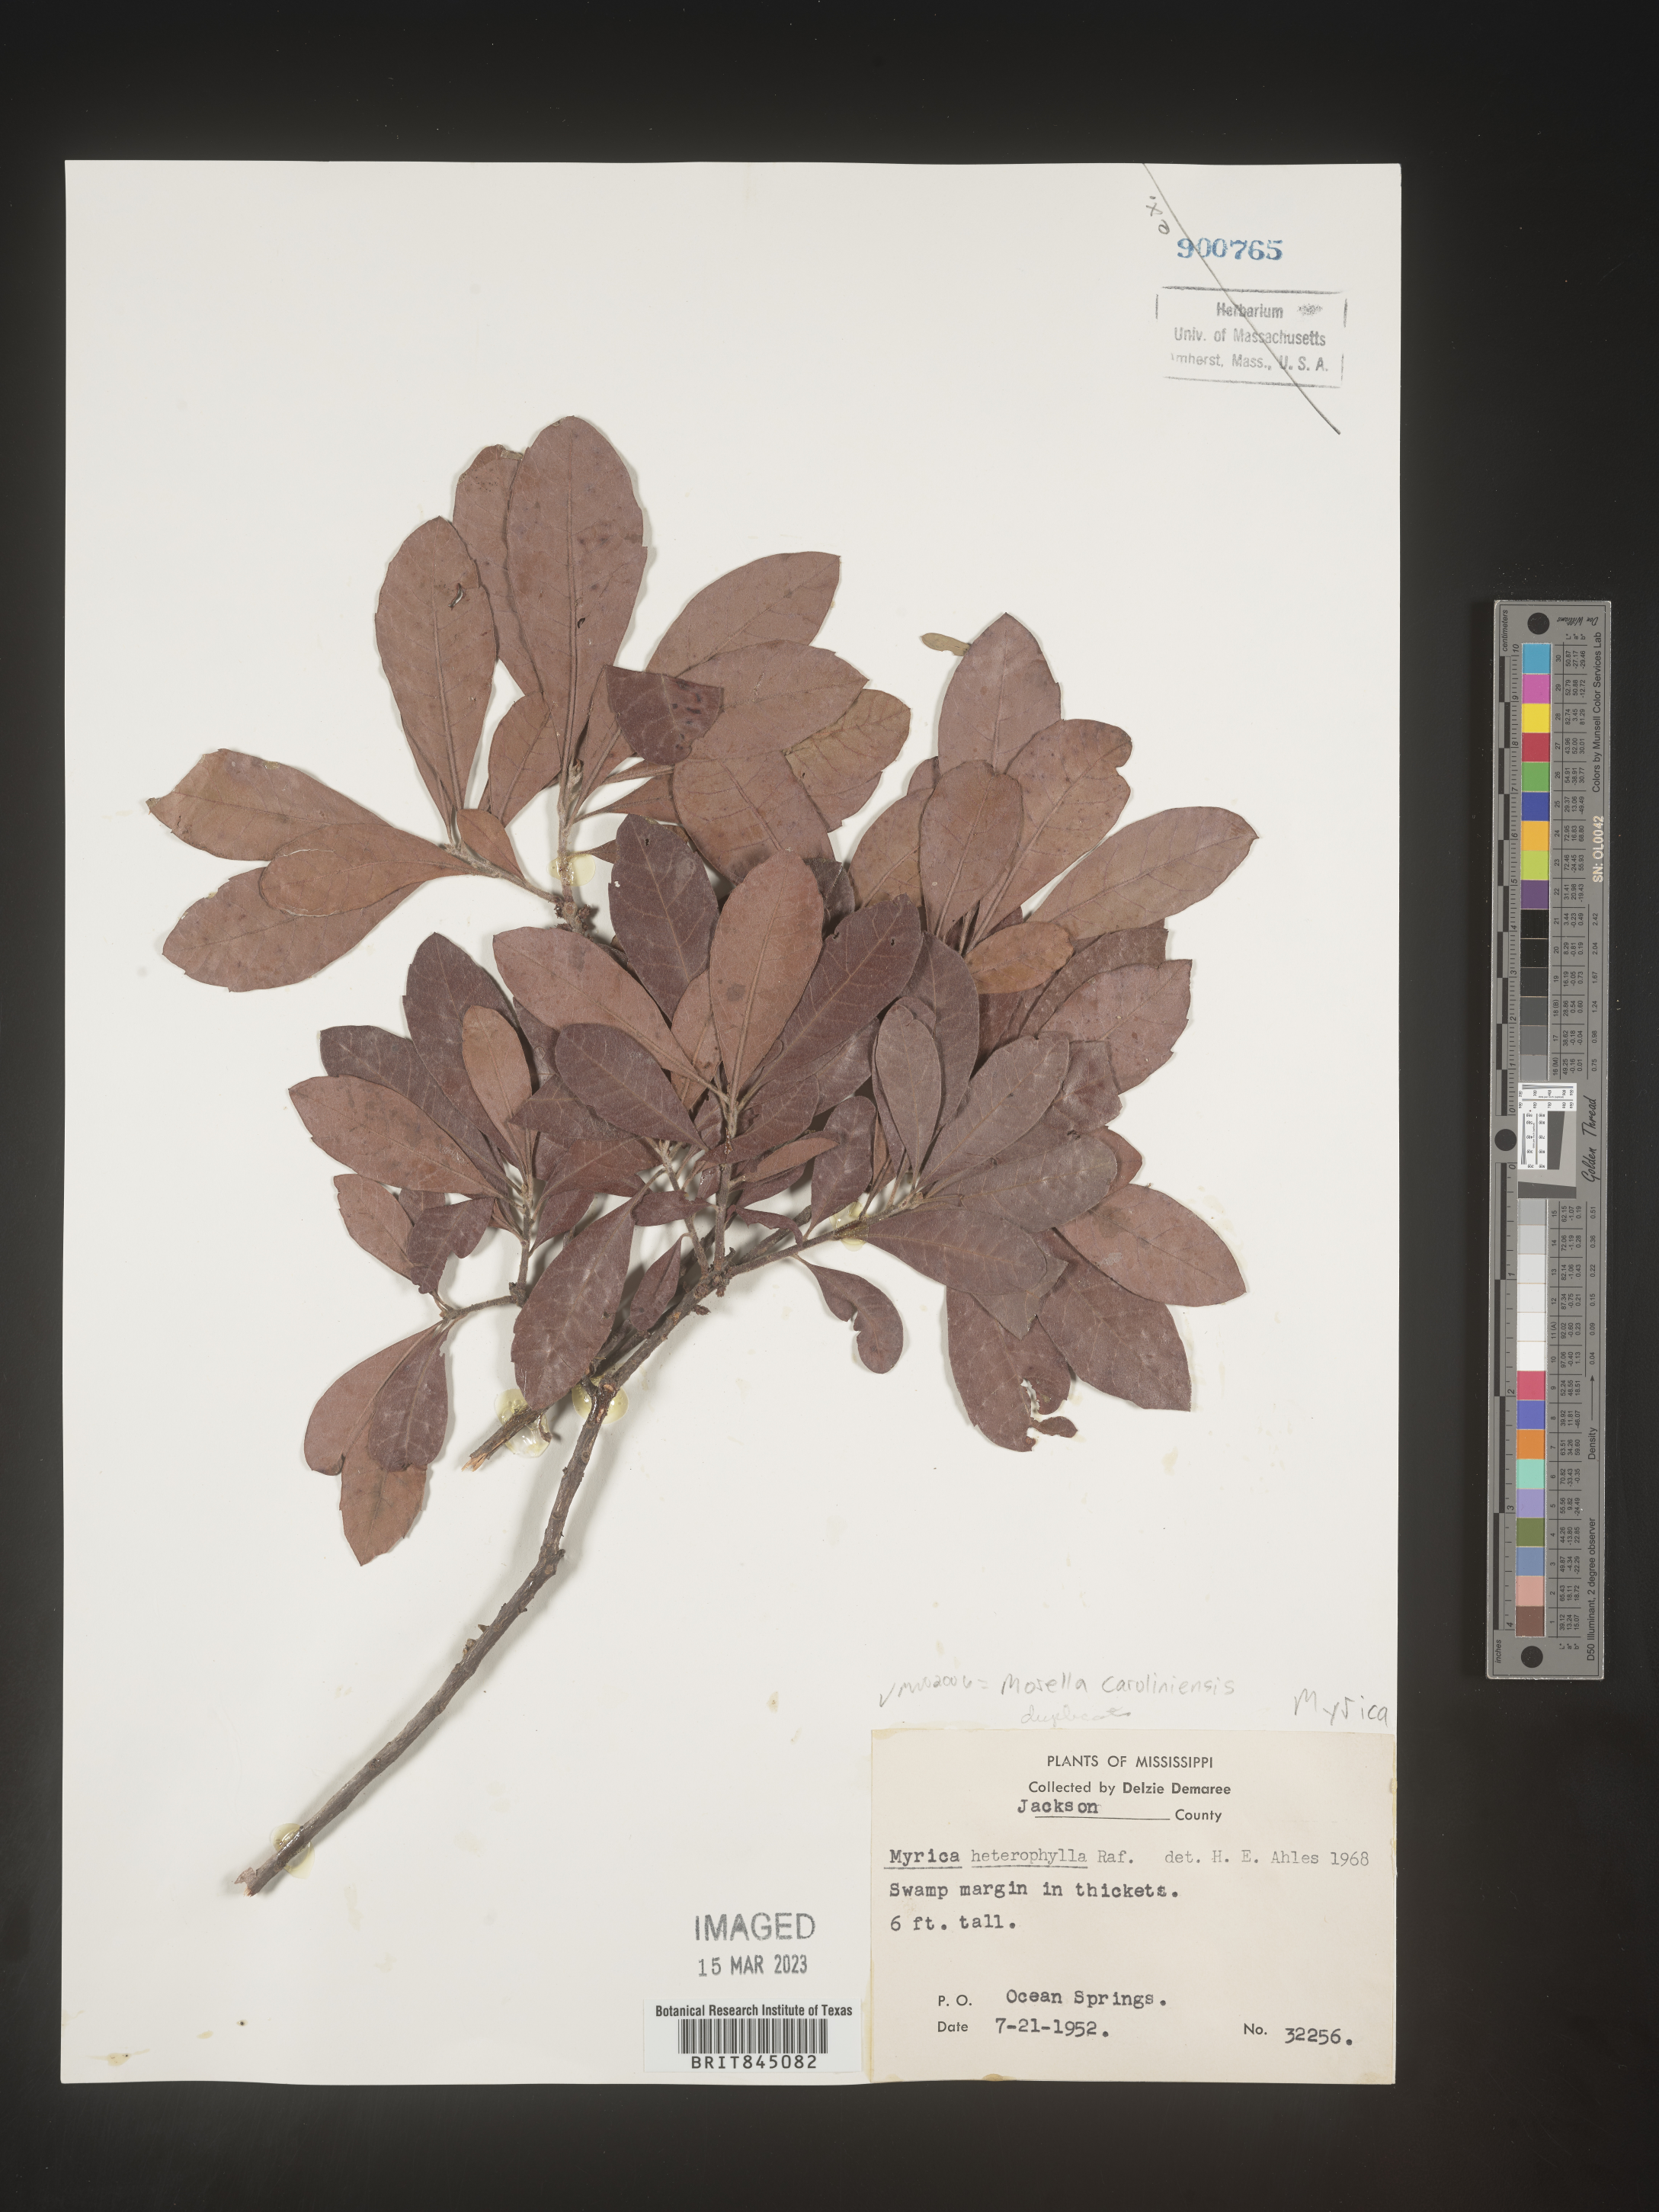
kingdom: Plantae
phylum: Tracheophyta
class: Magnoliopsida
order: Fagales
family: Myricaceae
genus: Morella
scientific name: Morella caroliniensis
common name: Evergreen bayberry
